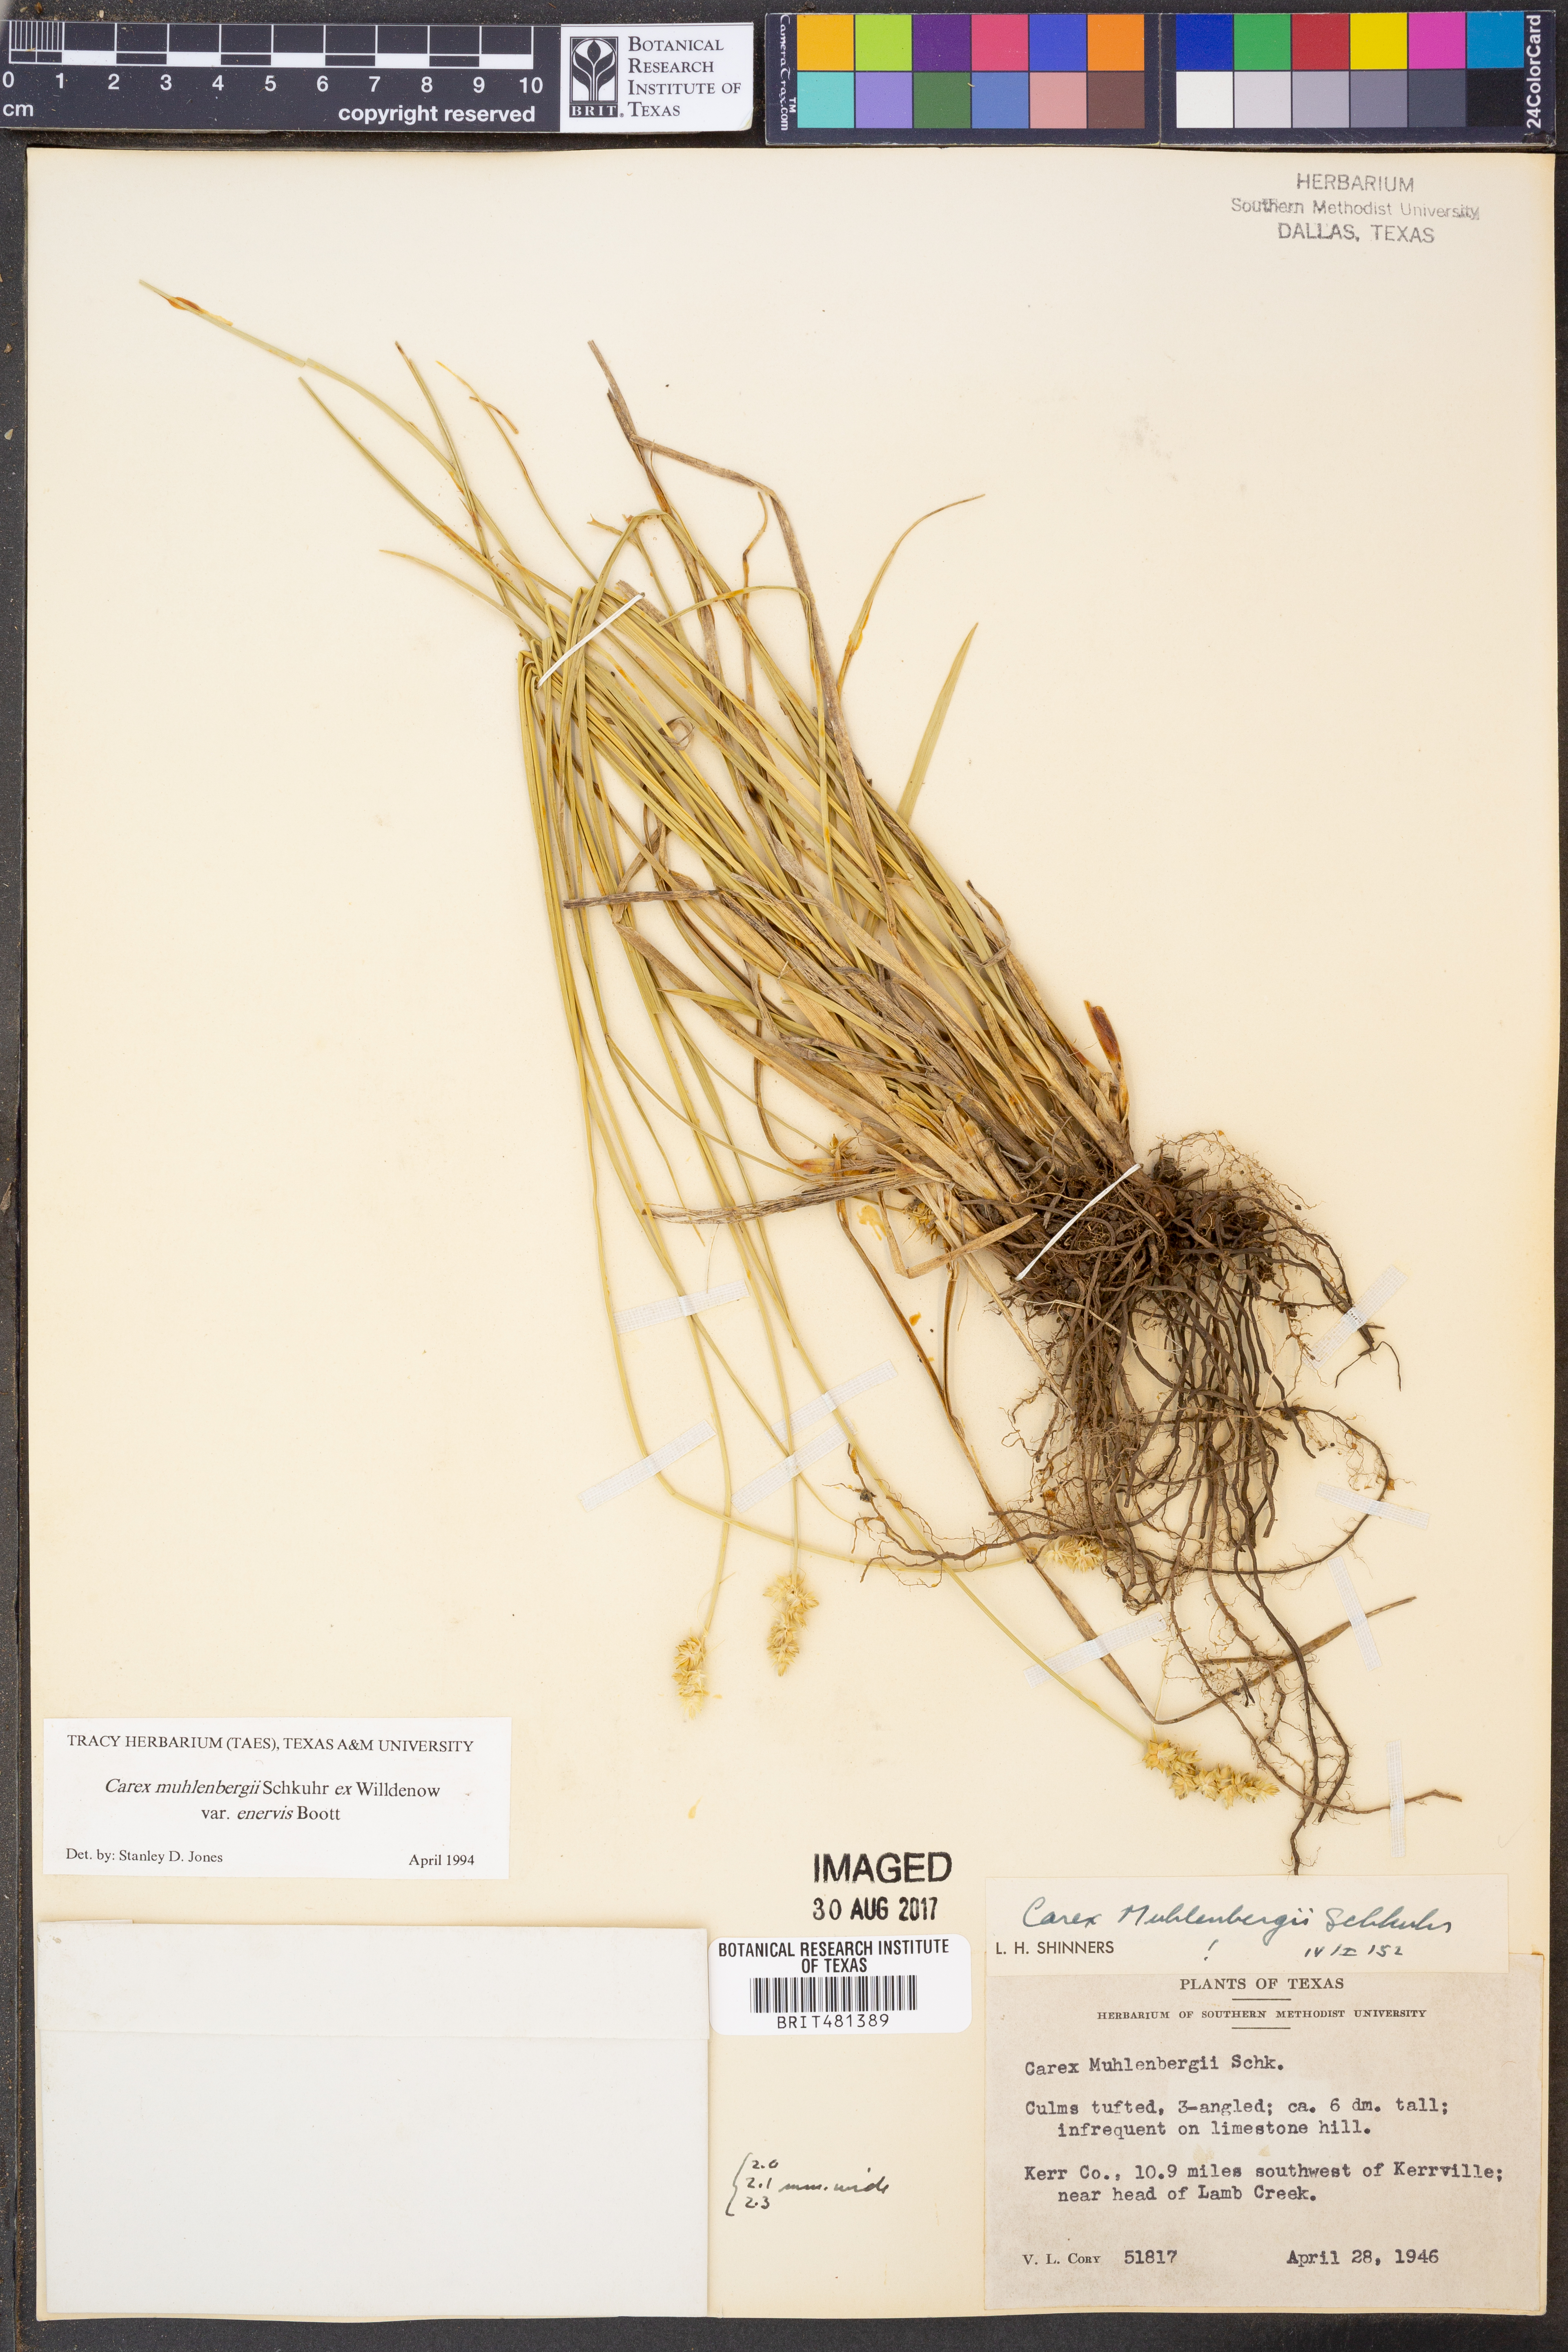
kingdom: Plantae
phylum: Tracheophyta
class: Liliopsida
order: Poales
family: Cyperaceae
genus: Carex
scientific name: Carex muehlenbergii
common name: Muhlenberg's bracted sedge
